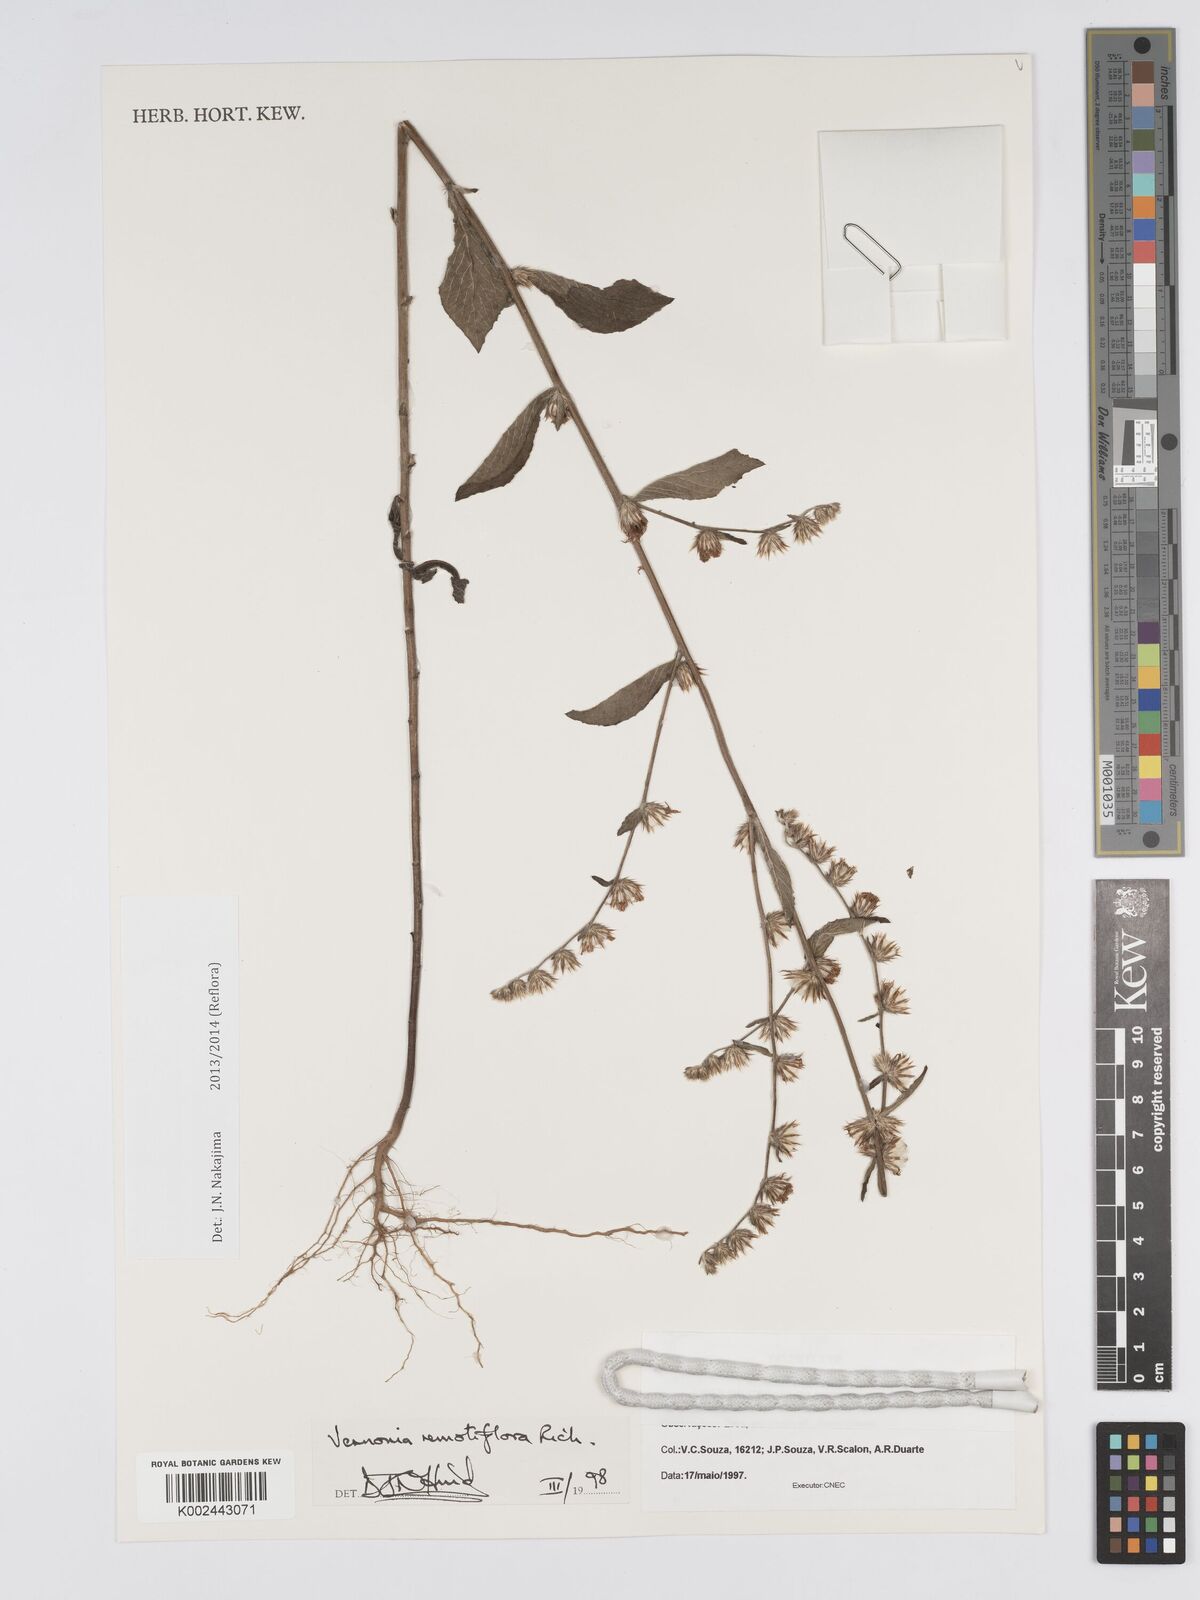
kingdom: Plantae
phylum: Tracheophyta
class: Magnoliopsida
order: Asterales
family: Asteraceae
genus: Lepidaploa
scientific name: Lepidaploa remotiflora
